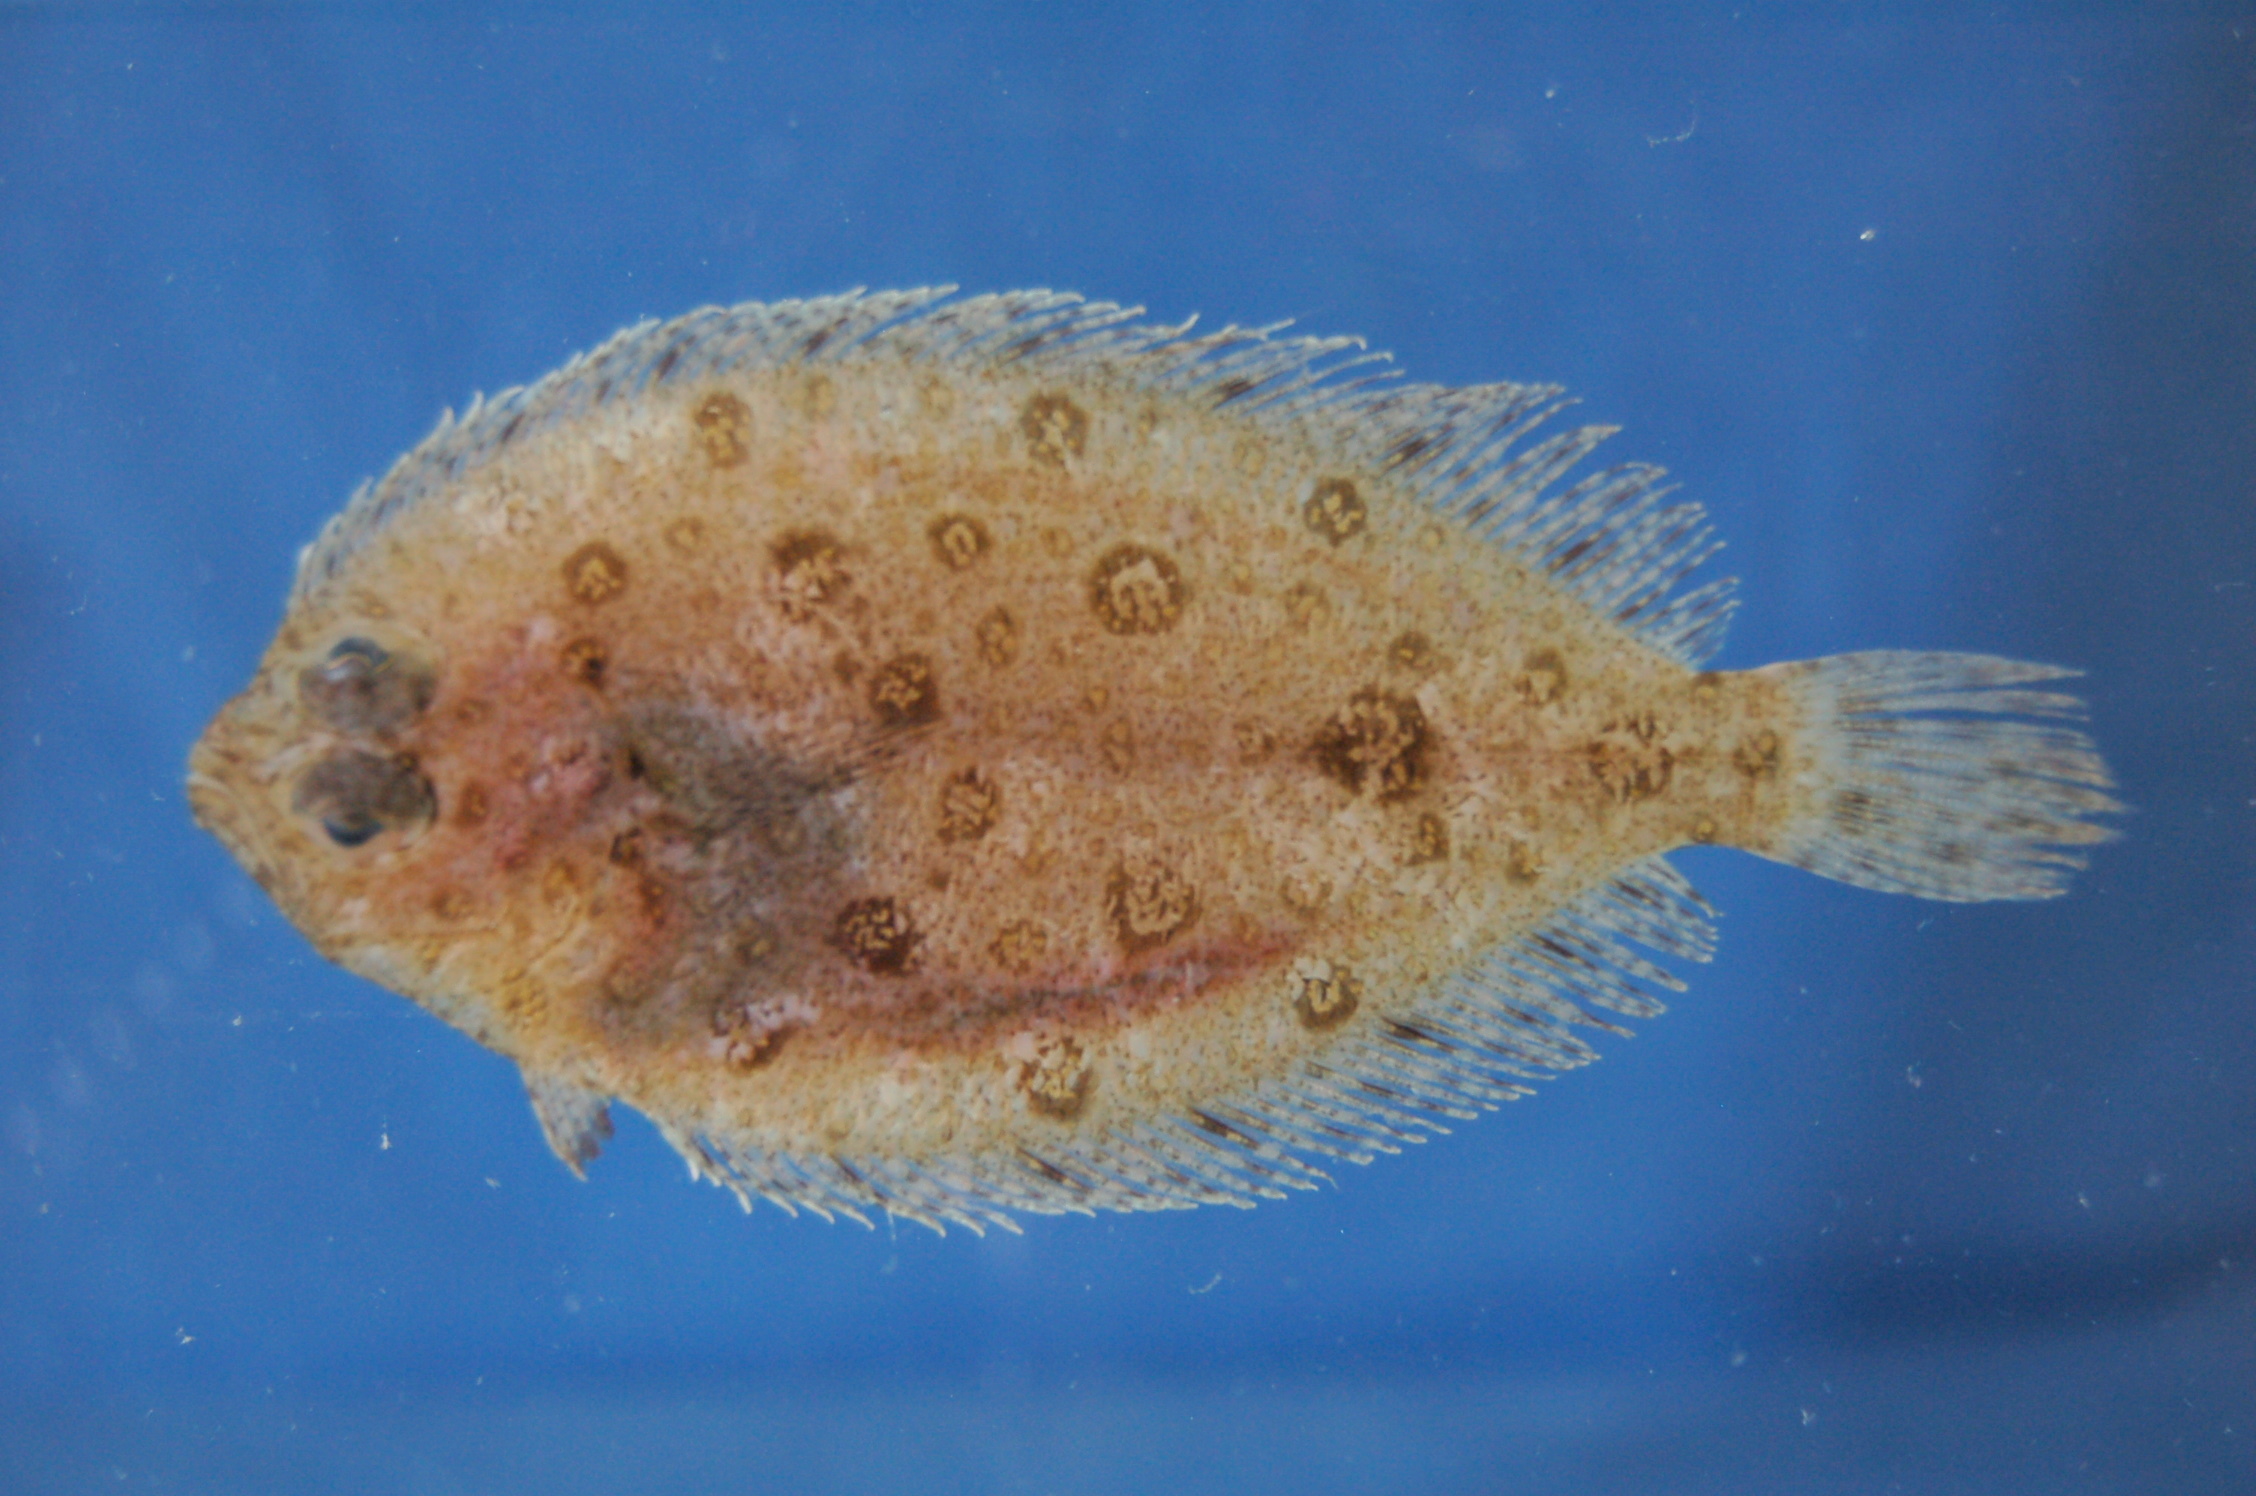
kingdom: Animalia
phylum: Chordata
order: Pleuronectiformes
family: Paralichthyidae
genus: Pseudorhombus
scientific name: Pseudorhombus natalensis
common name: Natal flounder
